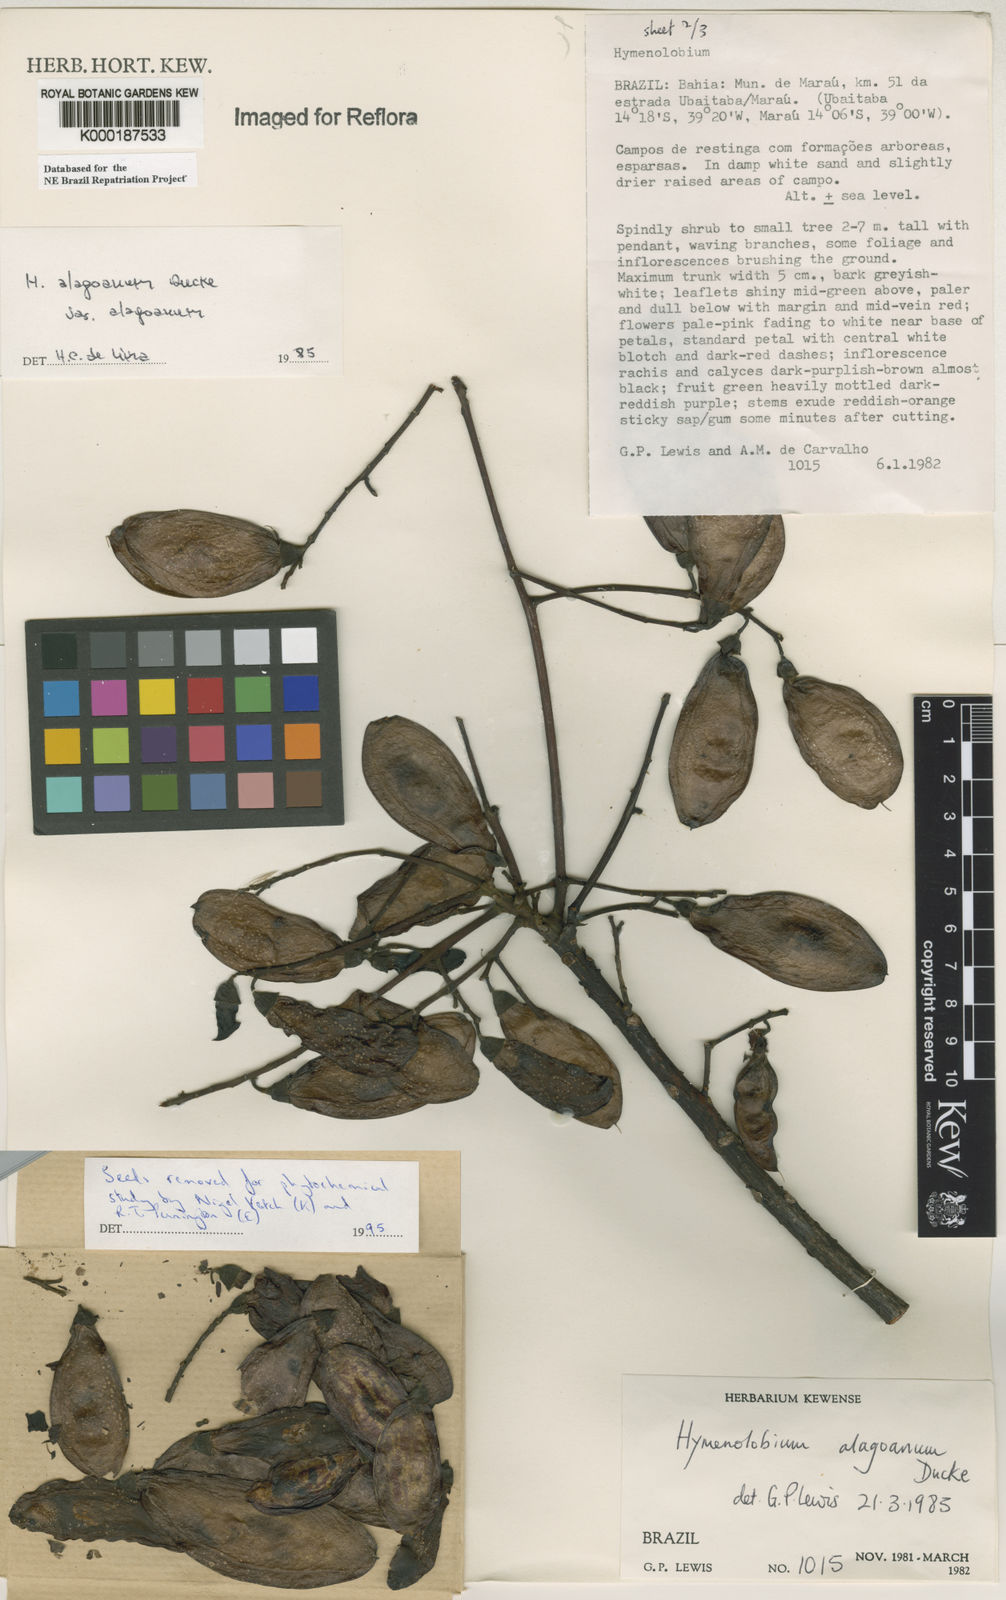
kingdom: Plantae
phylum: Tracheophyta
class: Magnoliopsida
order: Fabales
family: Fabaceae
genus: Hymenolobium
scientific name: Hymenolobium alagoanum
